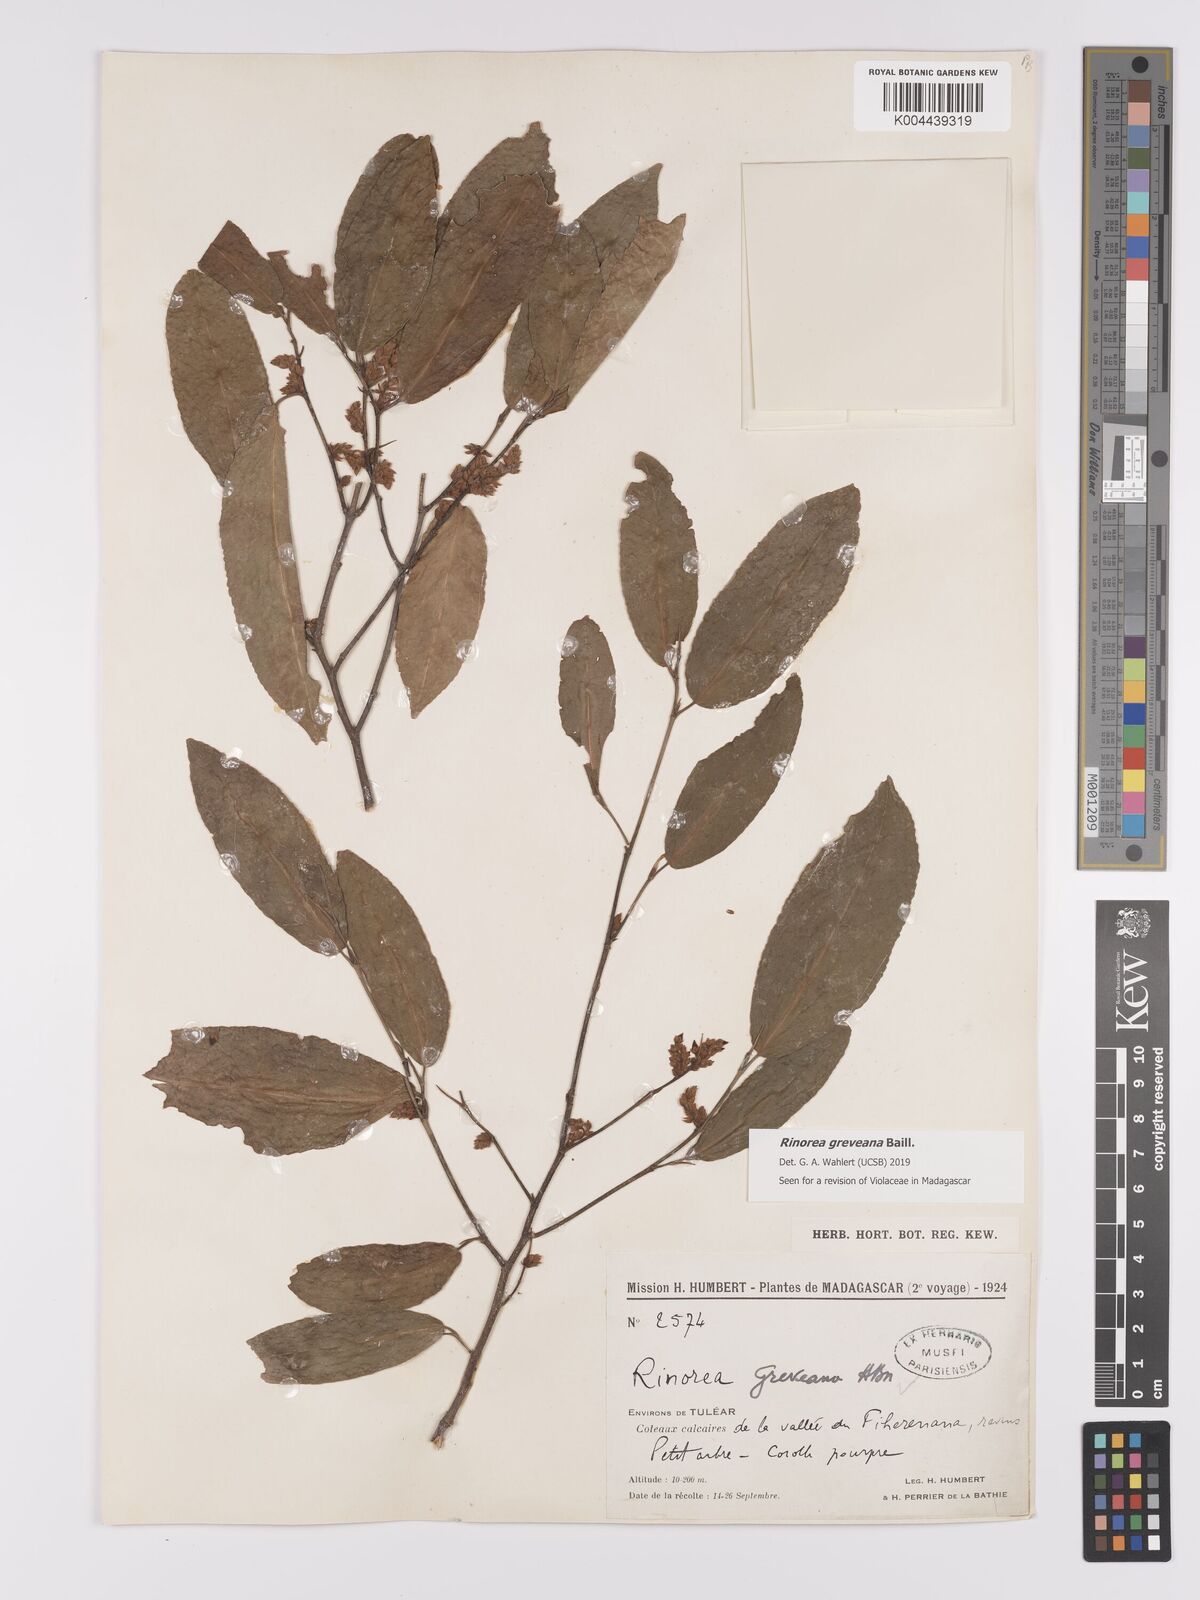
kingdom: Plantae
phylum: Tracheophyta
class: Magnoliopsida
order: Malpighiales
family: Violaceae
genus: Rinorea
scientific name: Rinorea greveana
